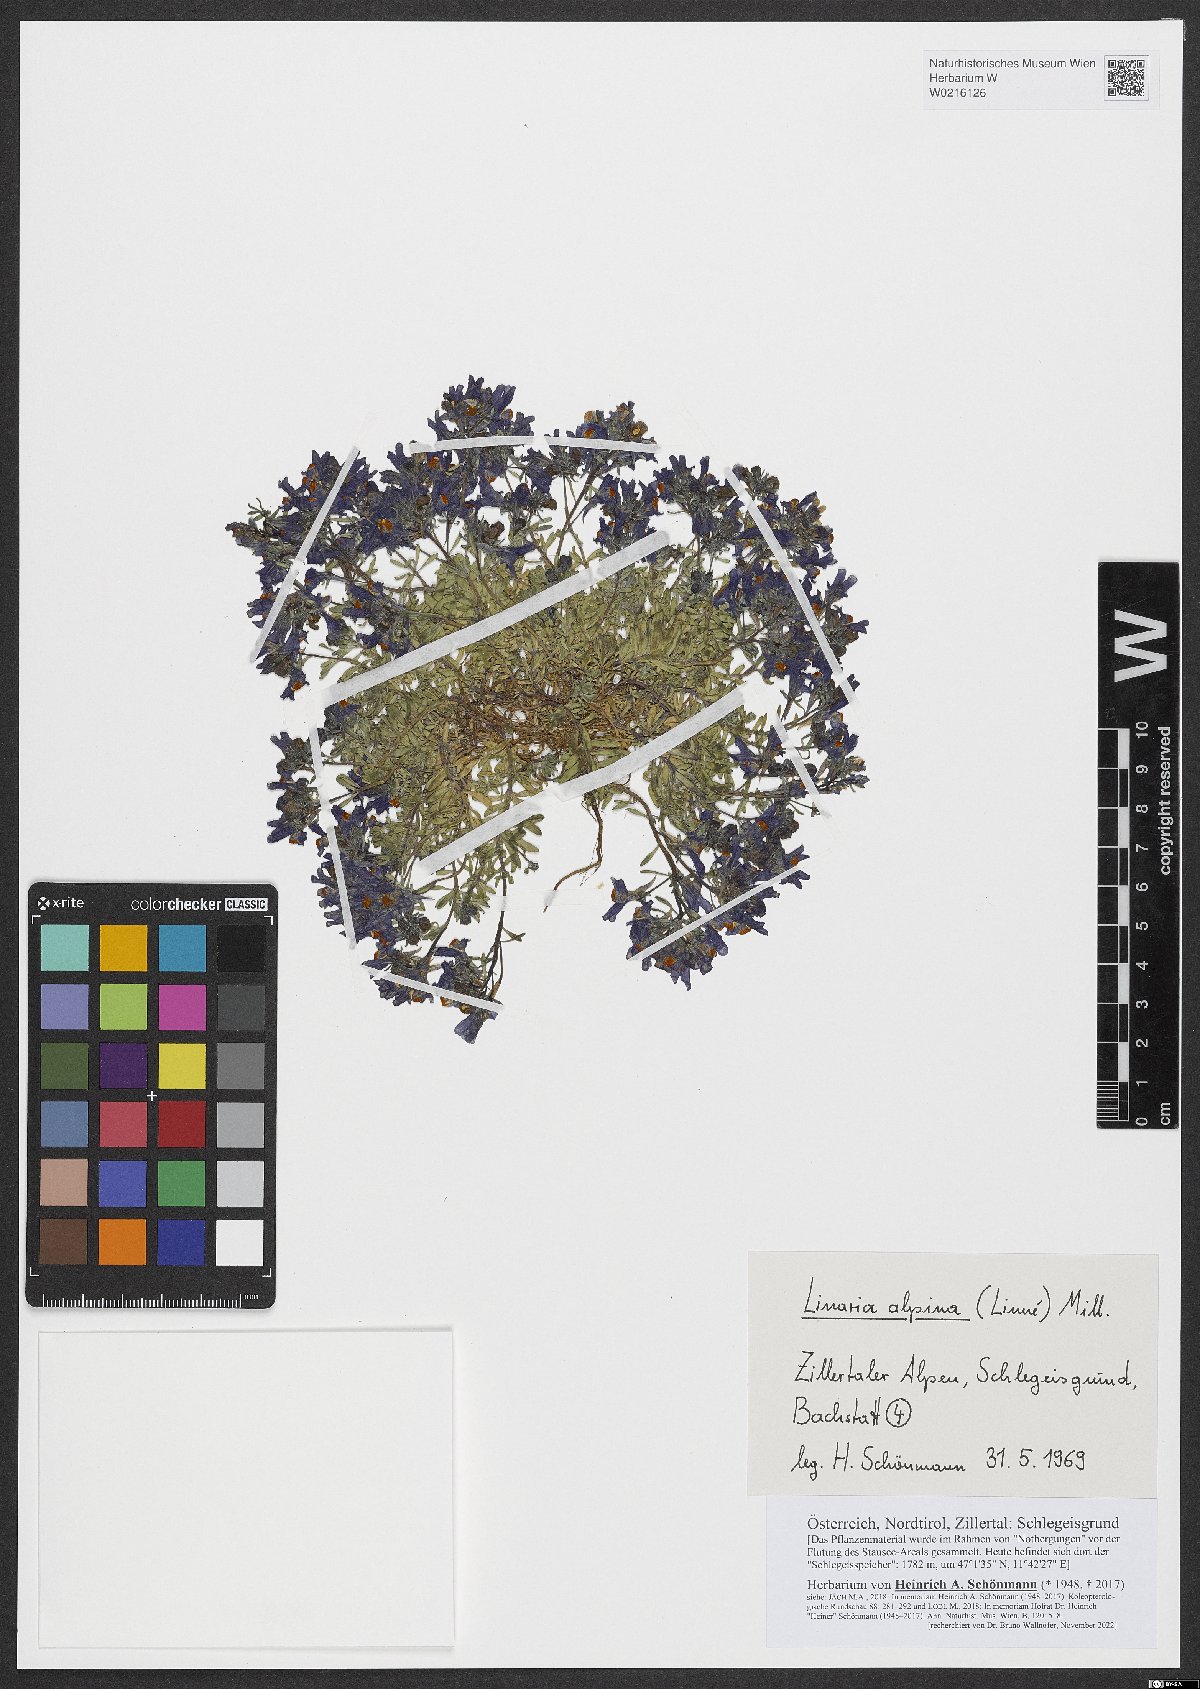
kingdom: Plantae
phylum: Tracheophyta
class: Magnoliopsida
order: Lamiales
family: Plantaginaceae
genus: Linaria
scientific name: Linaria alpina
